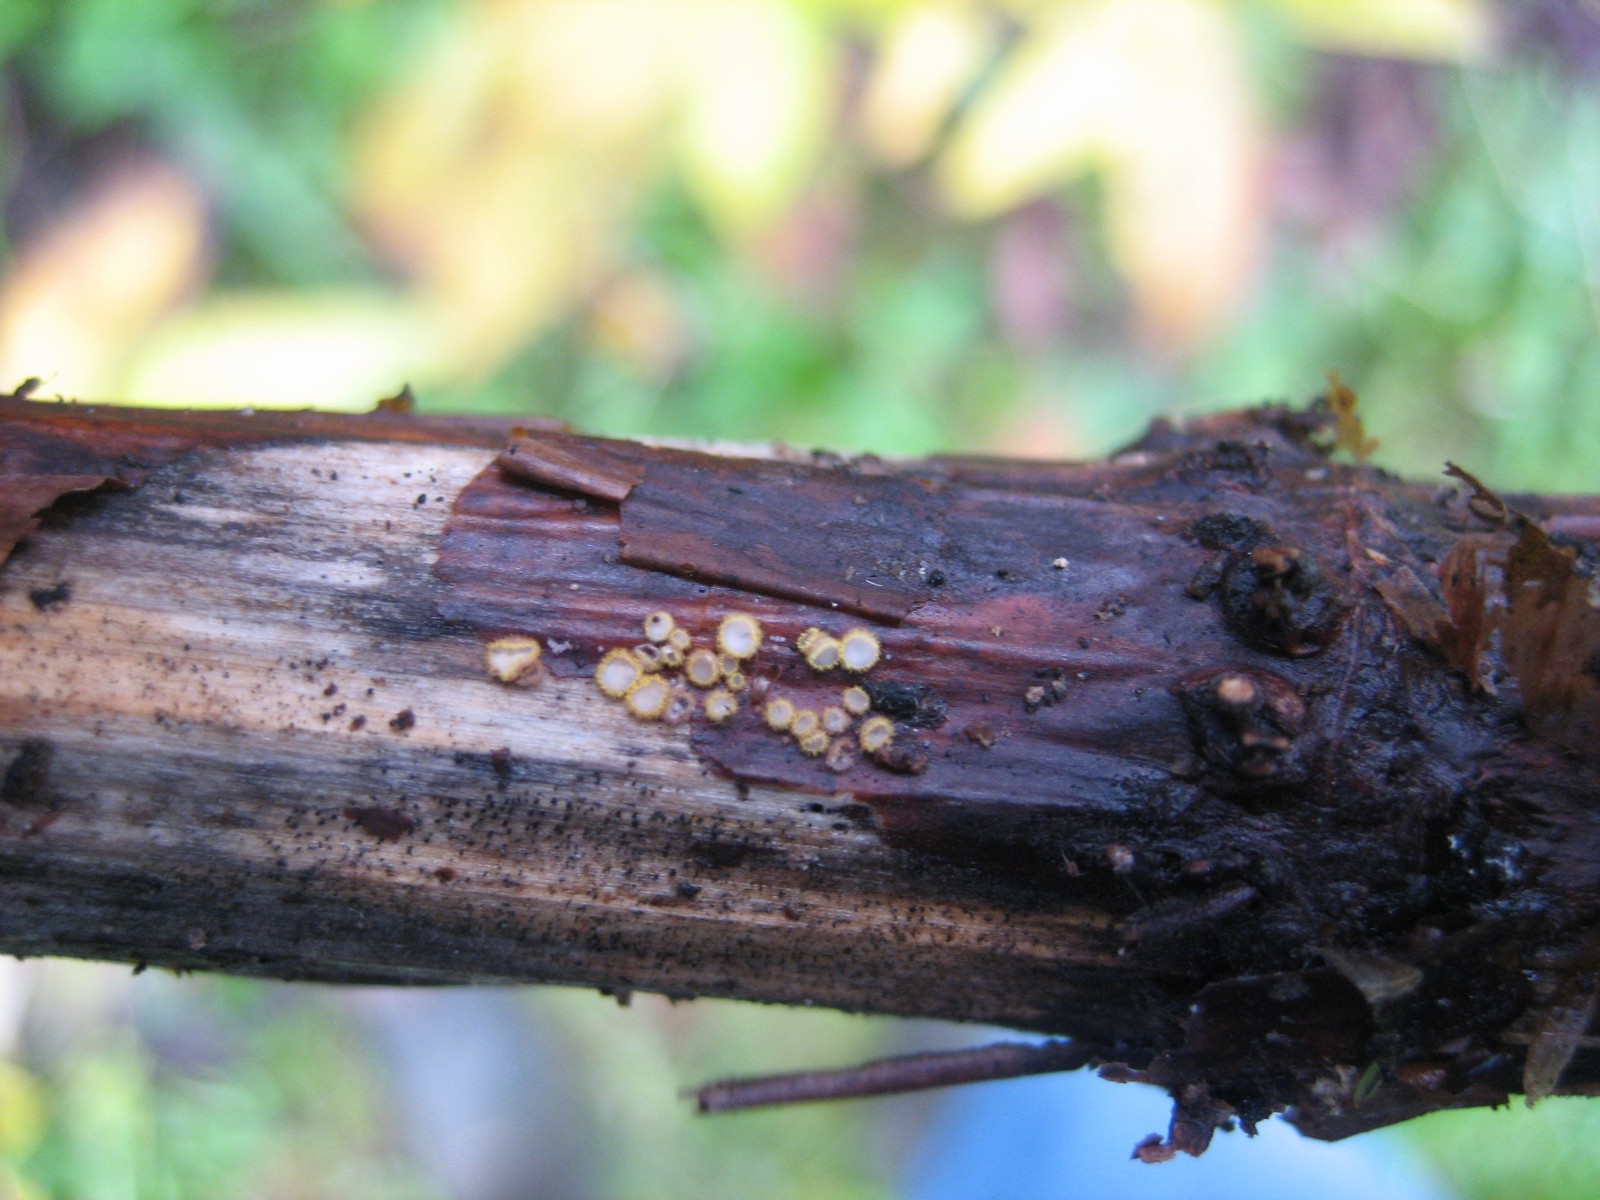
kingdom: Fungi
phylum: Ascomycota
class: Leotiomycetes
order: Helotiales
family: Lachnaceae
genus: Trichopeziza
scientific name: Trichopeziza
